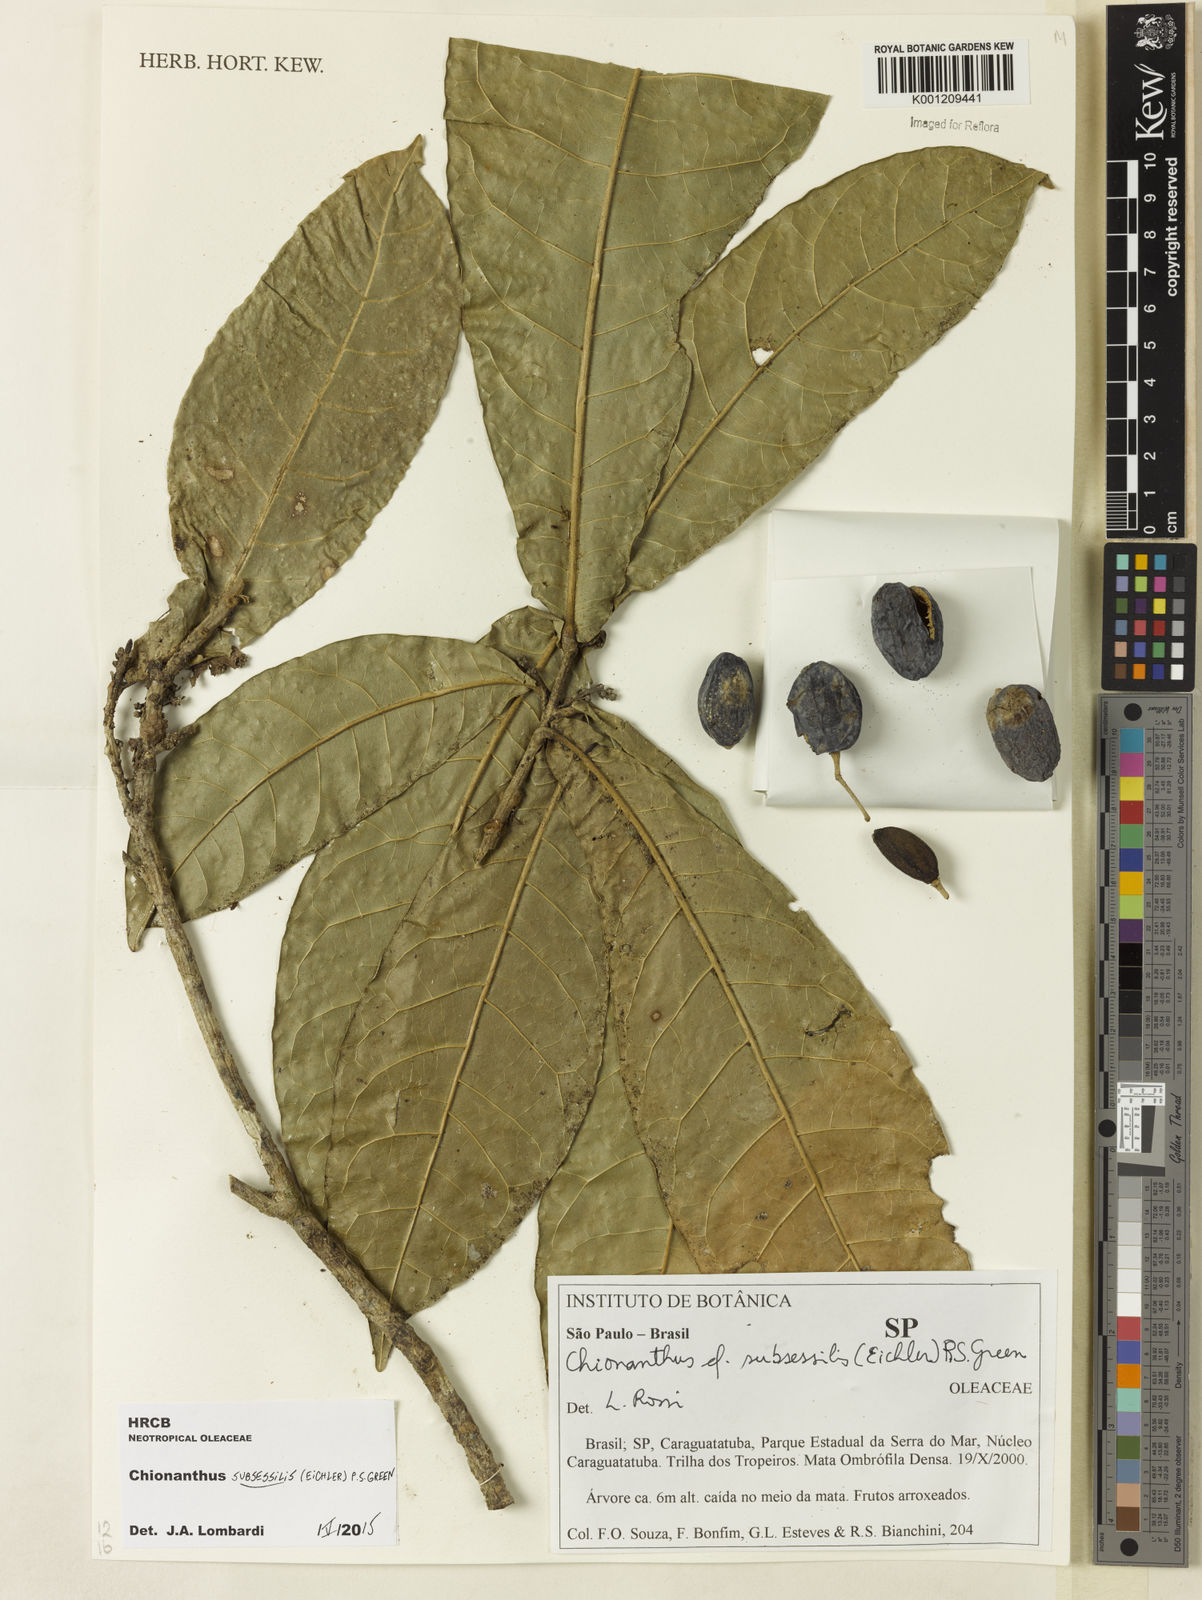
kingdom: Plantae
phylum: Tracheophyta
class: Magnoliopsida
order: Lamiales
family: Oleaceae
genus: Chionanthus
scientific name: Chionanthus subsessilis
